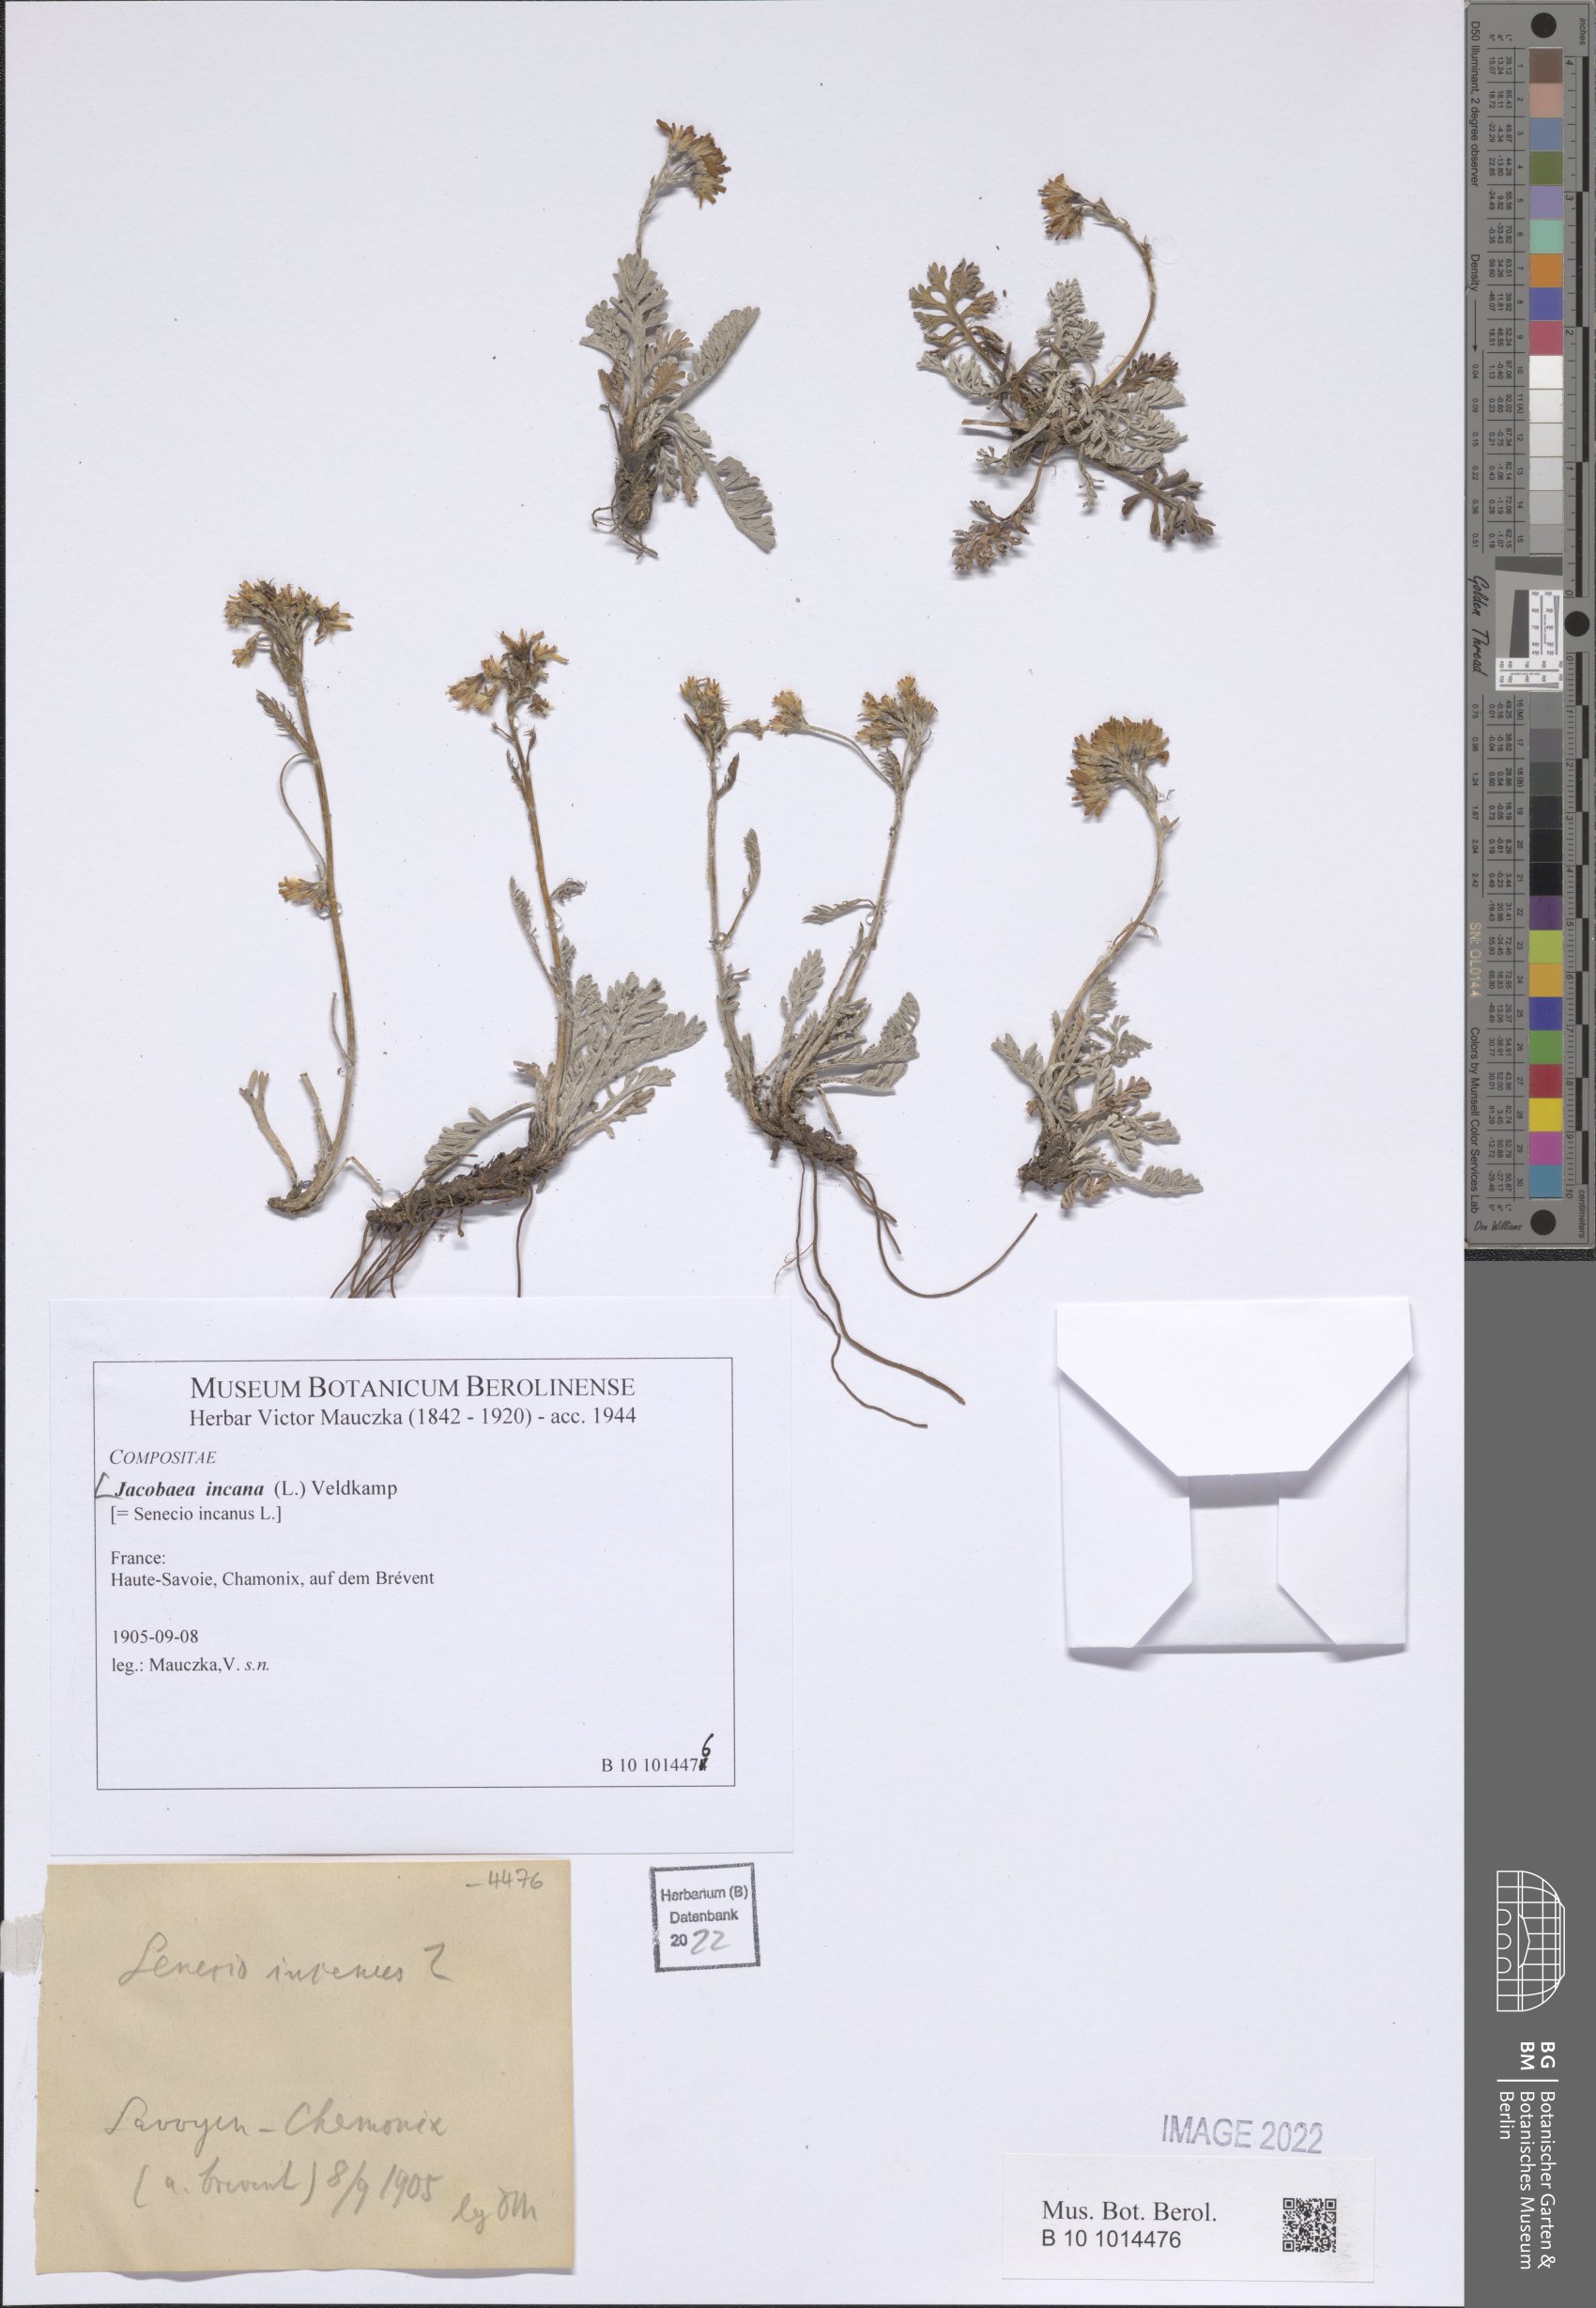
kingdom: Plantae
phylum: Tracheophyta
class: Magnoliopsida
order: Asterales
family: Asteraceae
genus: Jacobaea
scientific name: Jacobaea incana
